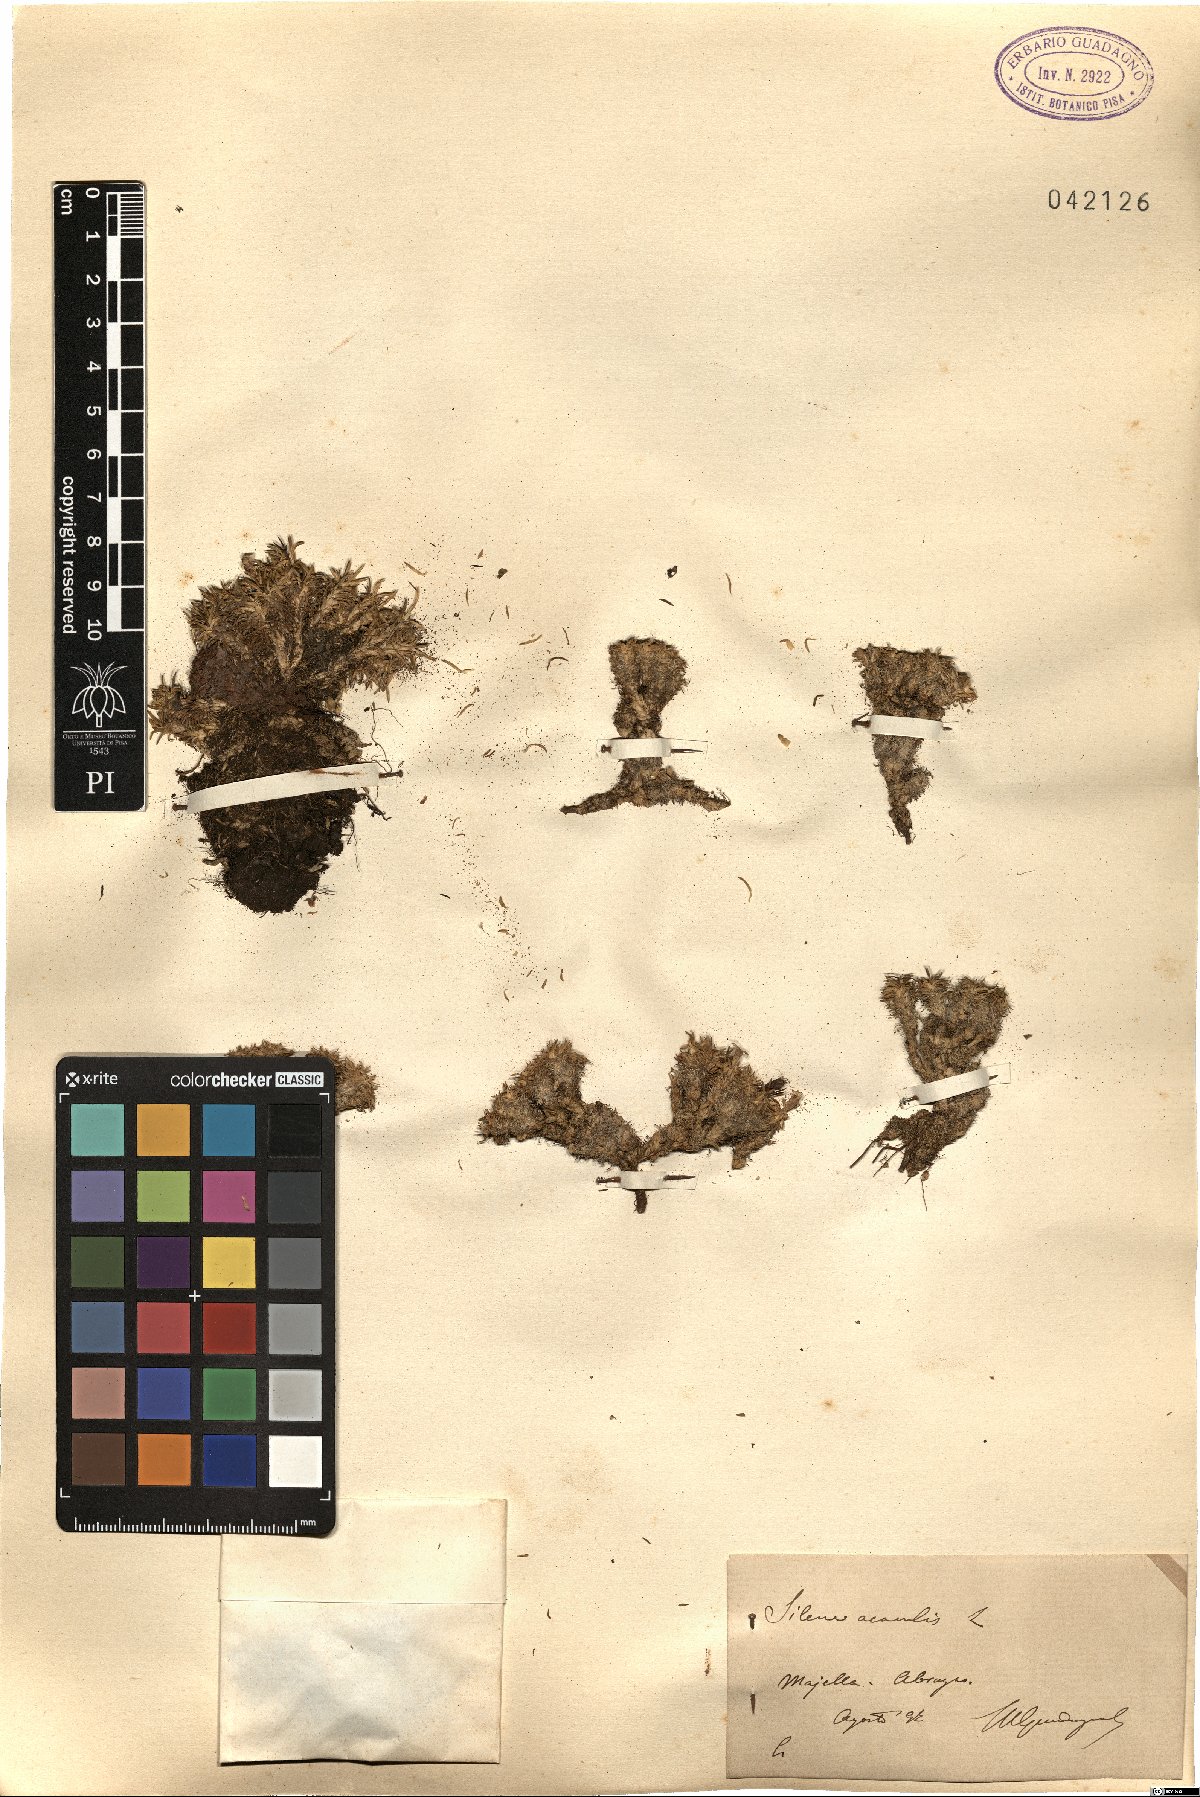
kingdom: Plantae
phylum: Tracheophyta
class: Magnoliopsida
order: Caryophyllales
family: Caryophyllaceae
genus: Silene
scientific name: Silene acaulis
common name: Moss campion
